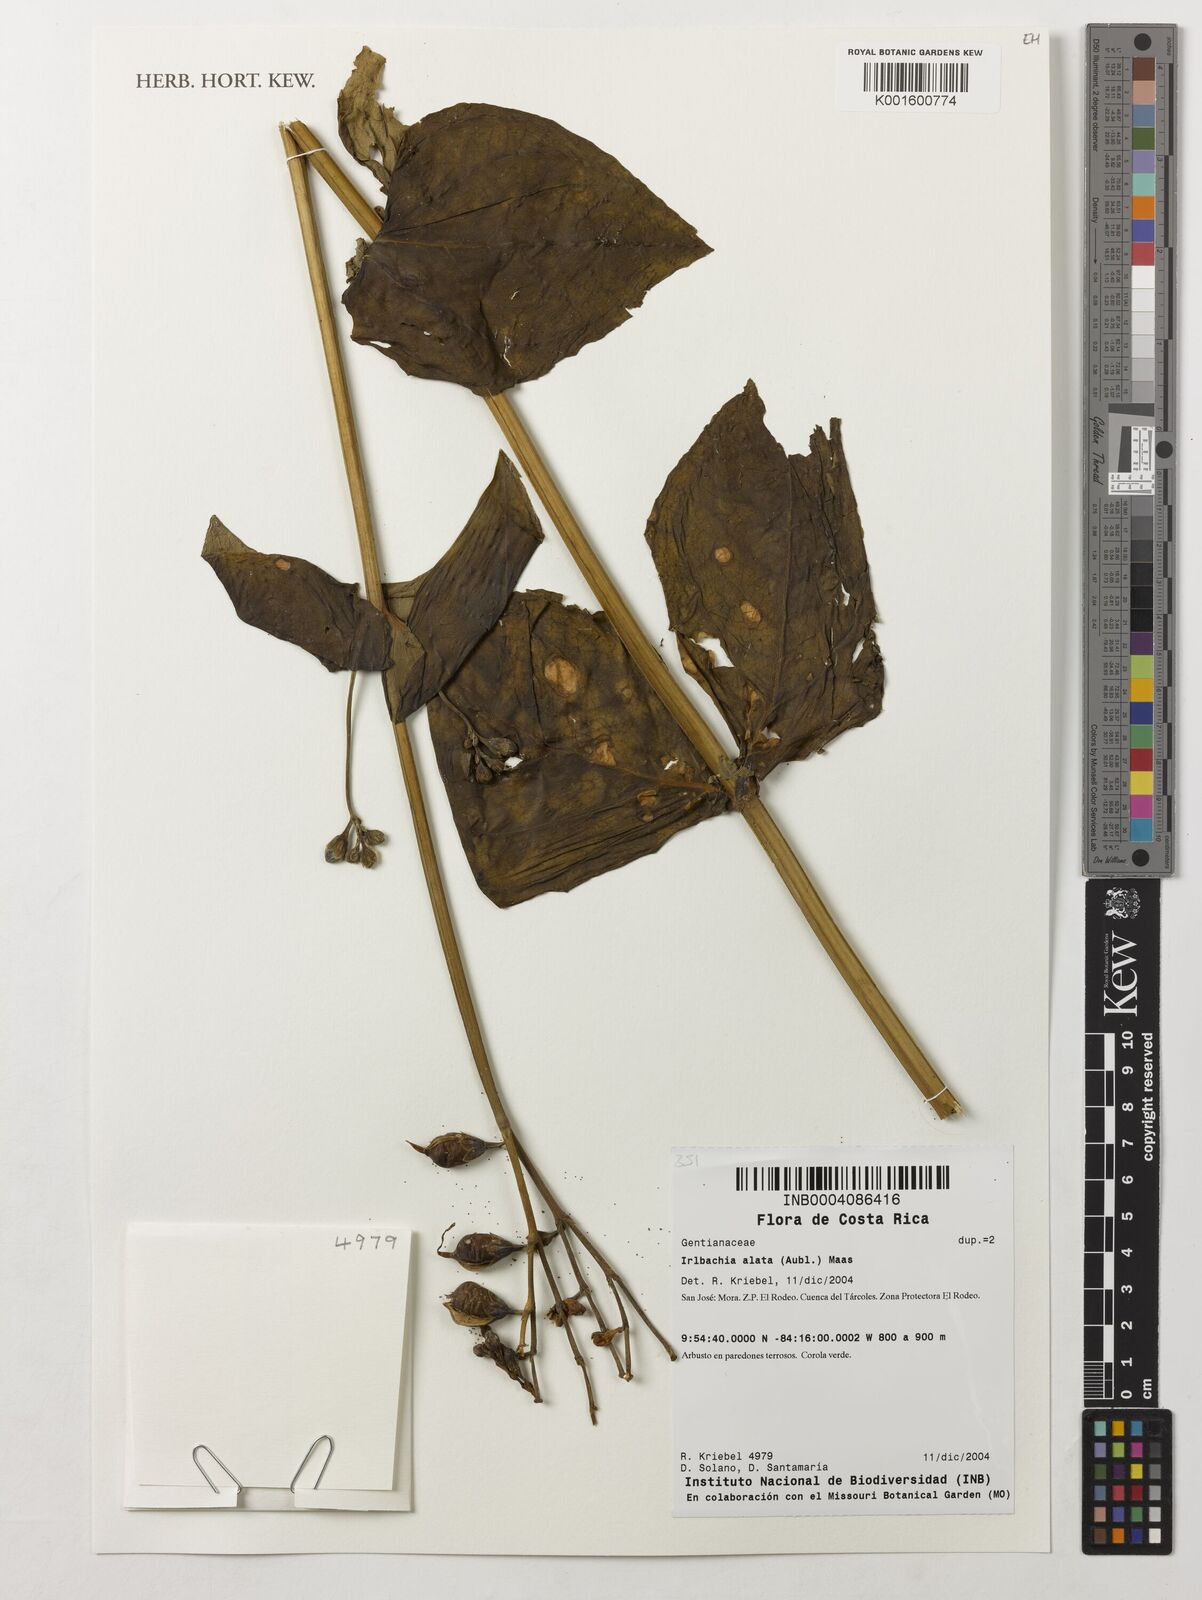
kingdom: Plantae
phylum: Tracheophyta
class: Magnoliopsida
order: Gentianales
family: Gentianaceae
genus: Chelonanthus
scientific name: Chelonanthus alatus
